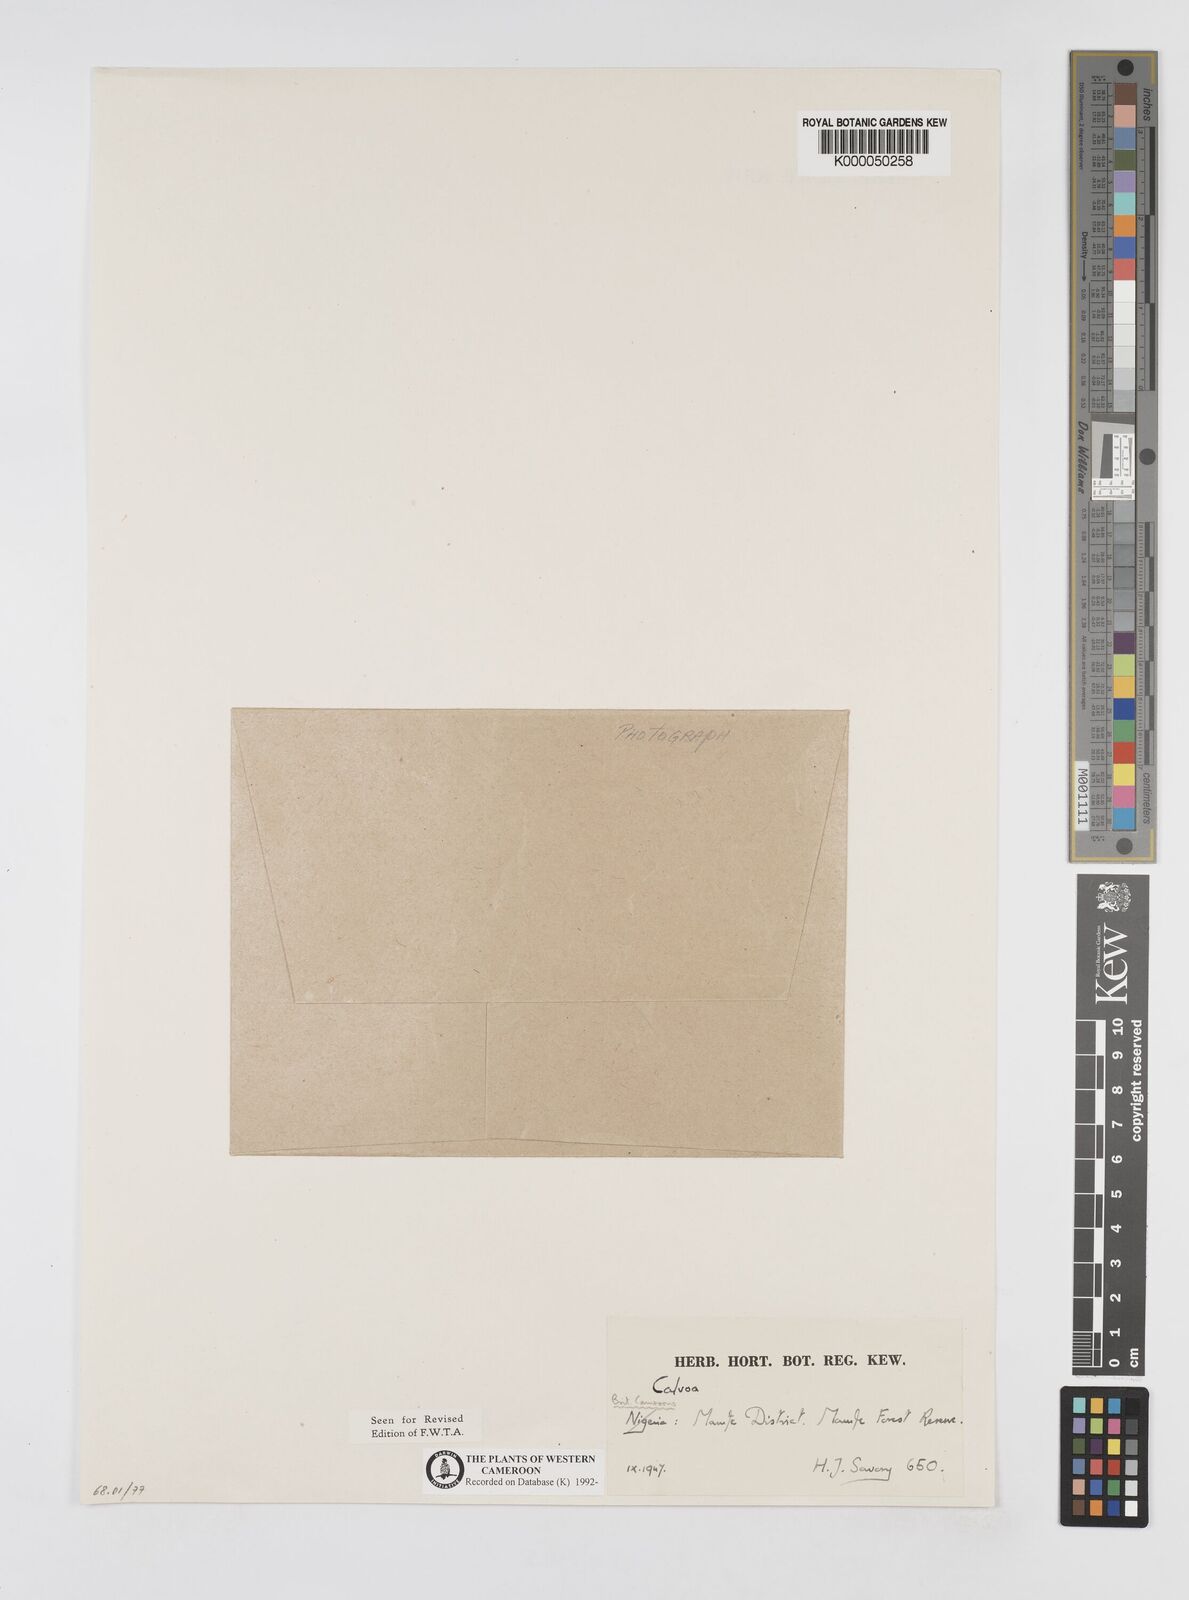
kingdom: Plantae
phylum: Tracheophyta
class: Magnoliopsida
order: Myrtales
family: Melastomataceae
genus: Calvoa
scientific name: Calvoa
